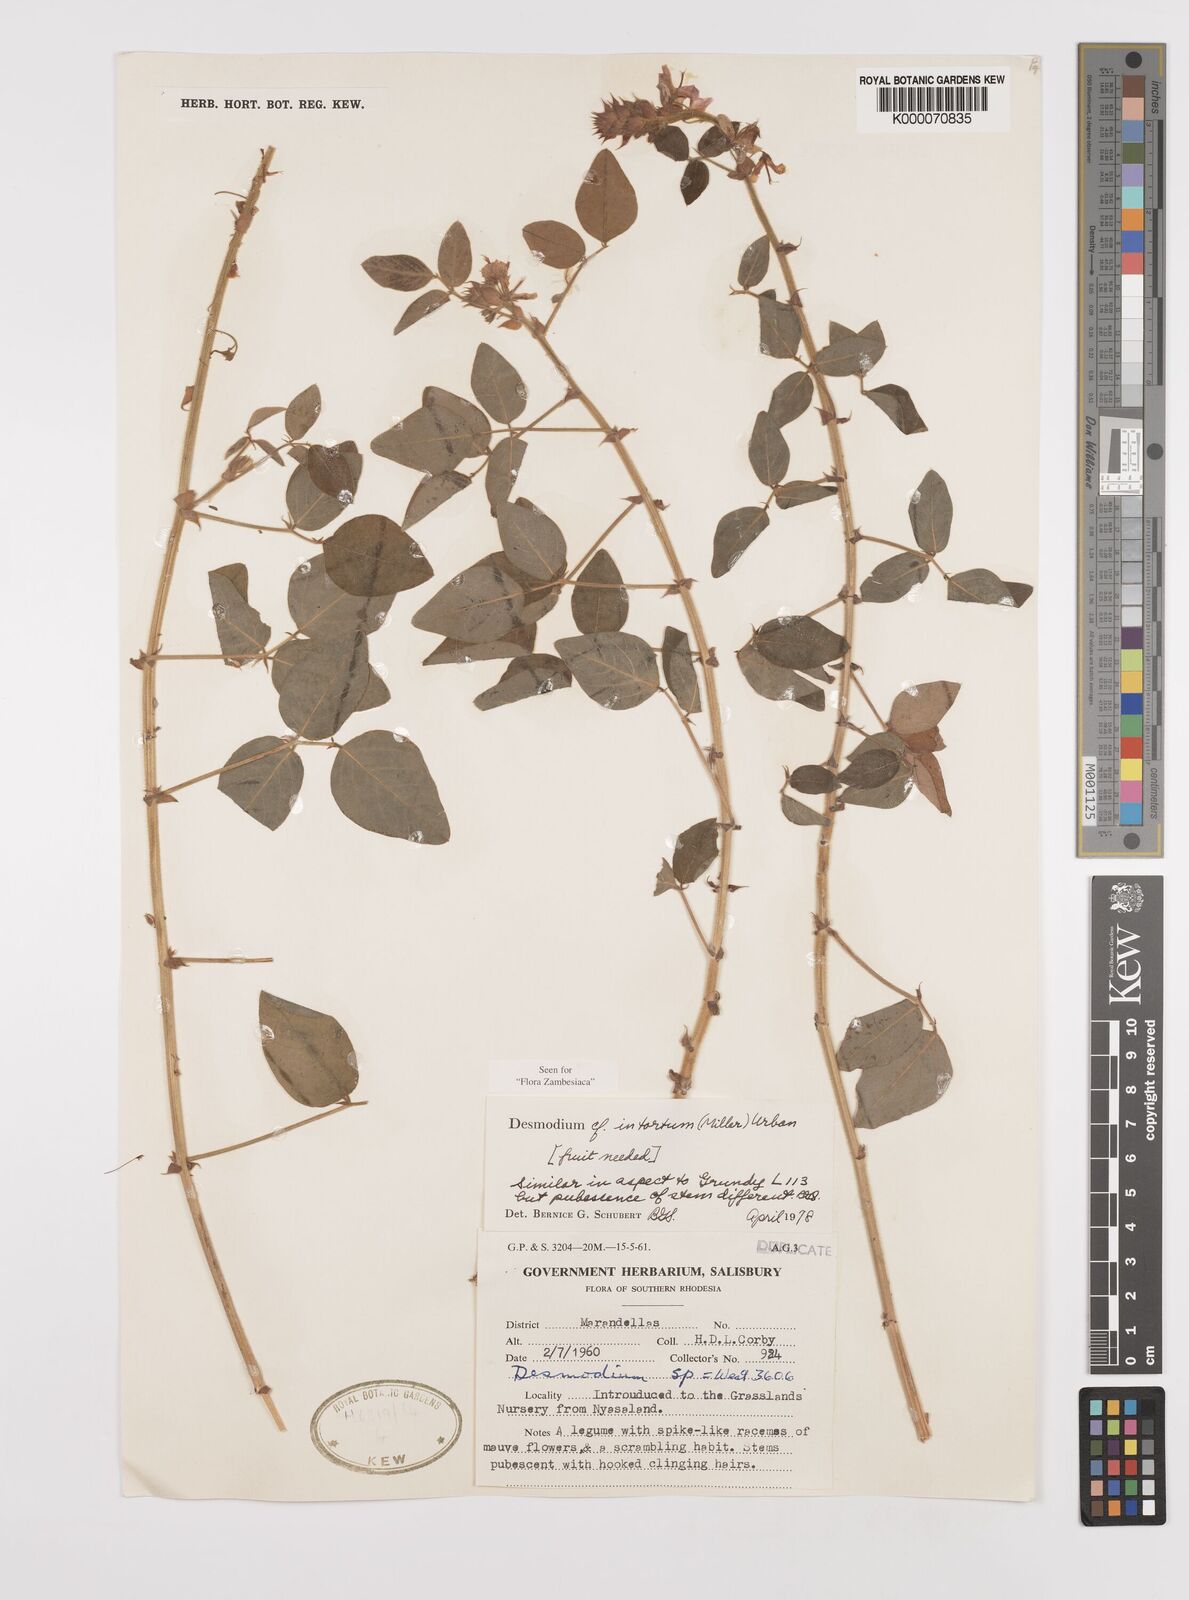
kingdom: Plantae
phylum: Tracheophyta
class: Magnoliopsida
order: Fabales
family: Fabaceae
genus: Desmodium
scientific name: Desmodium intortum
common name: Greenleaf ticktrefoil
